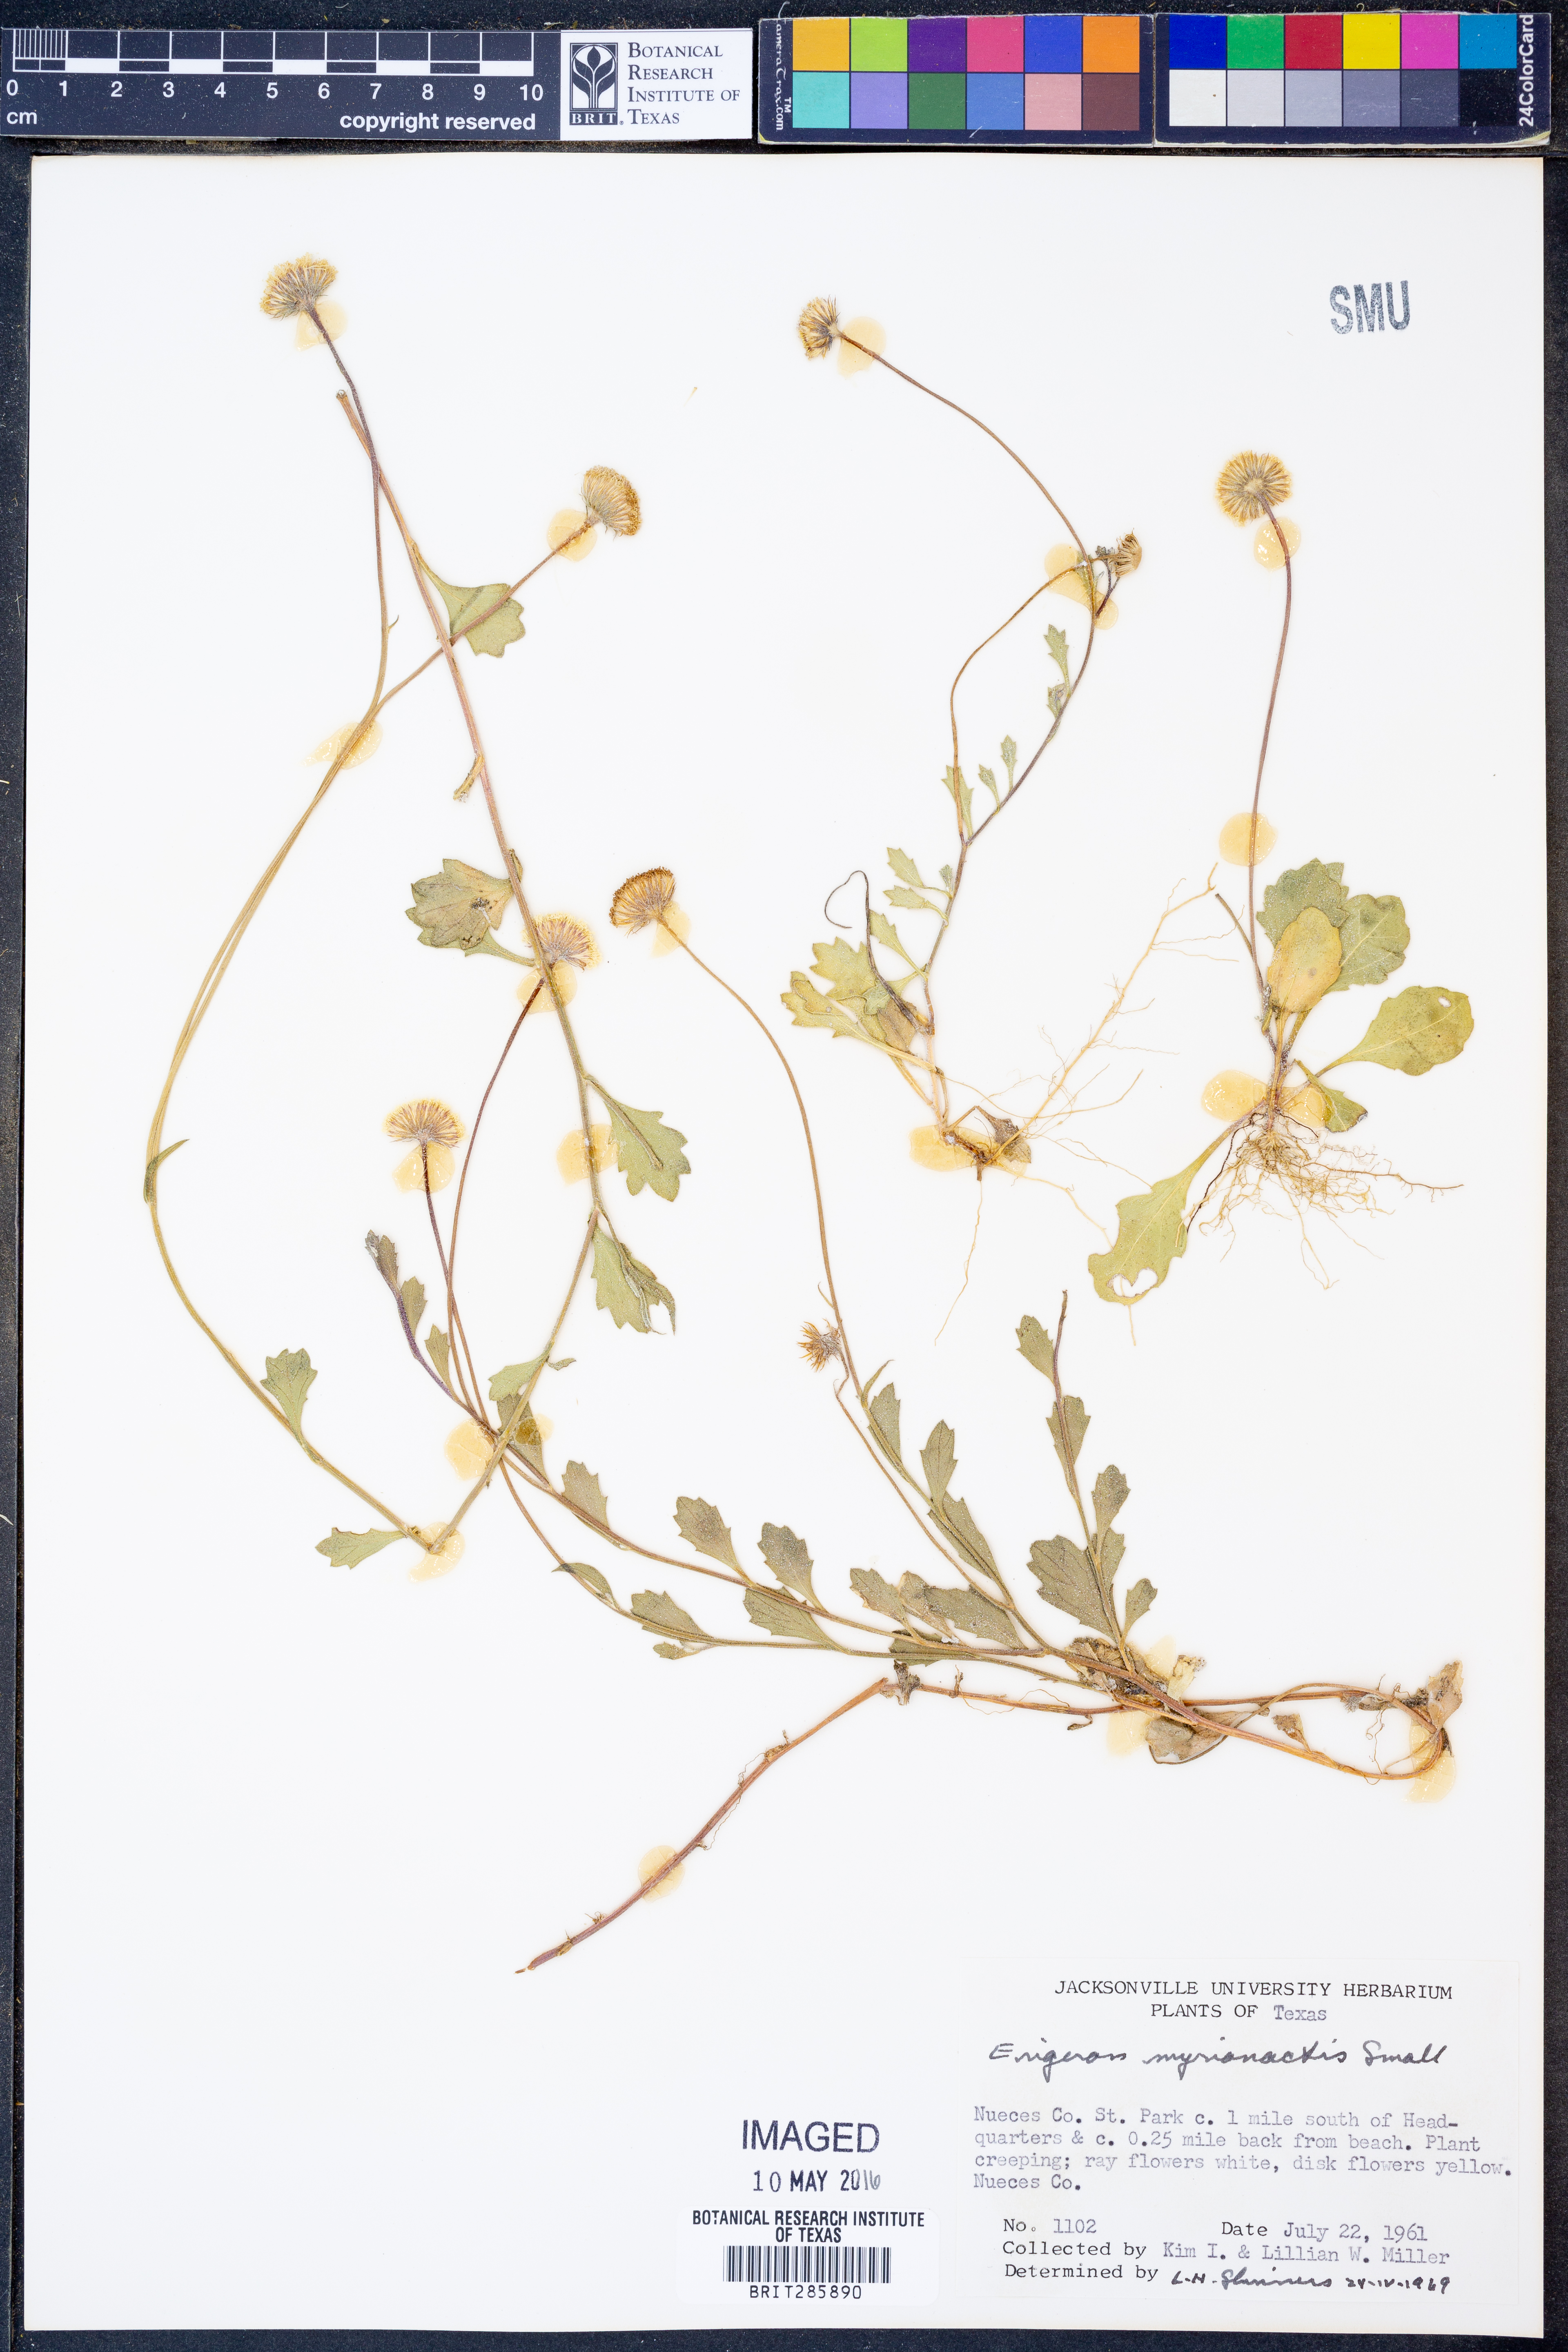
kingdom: Plantae
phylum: Tracheophyta
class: Magnoliopsida
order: Asterales
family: Asteraceae
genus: Erigeron
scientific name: Erigeron procumbens
